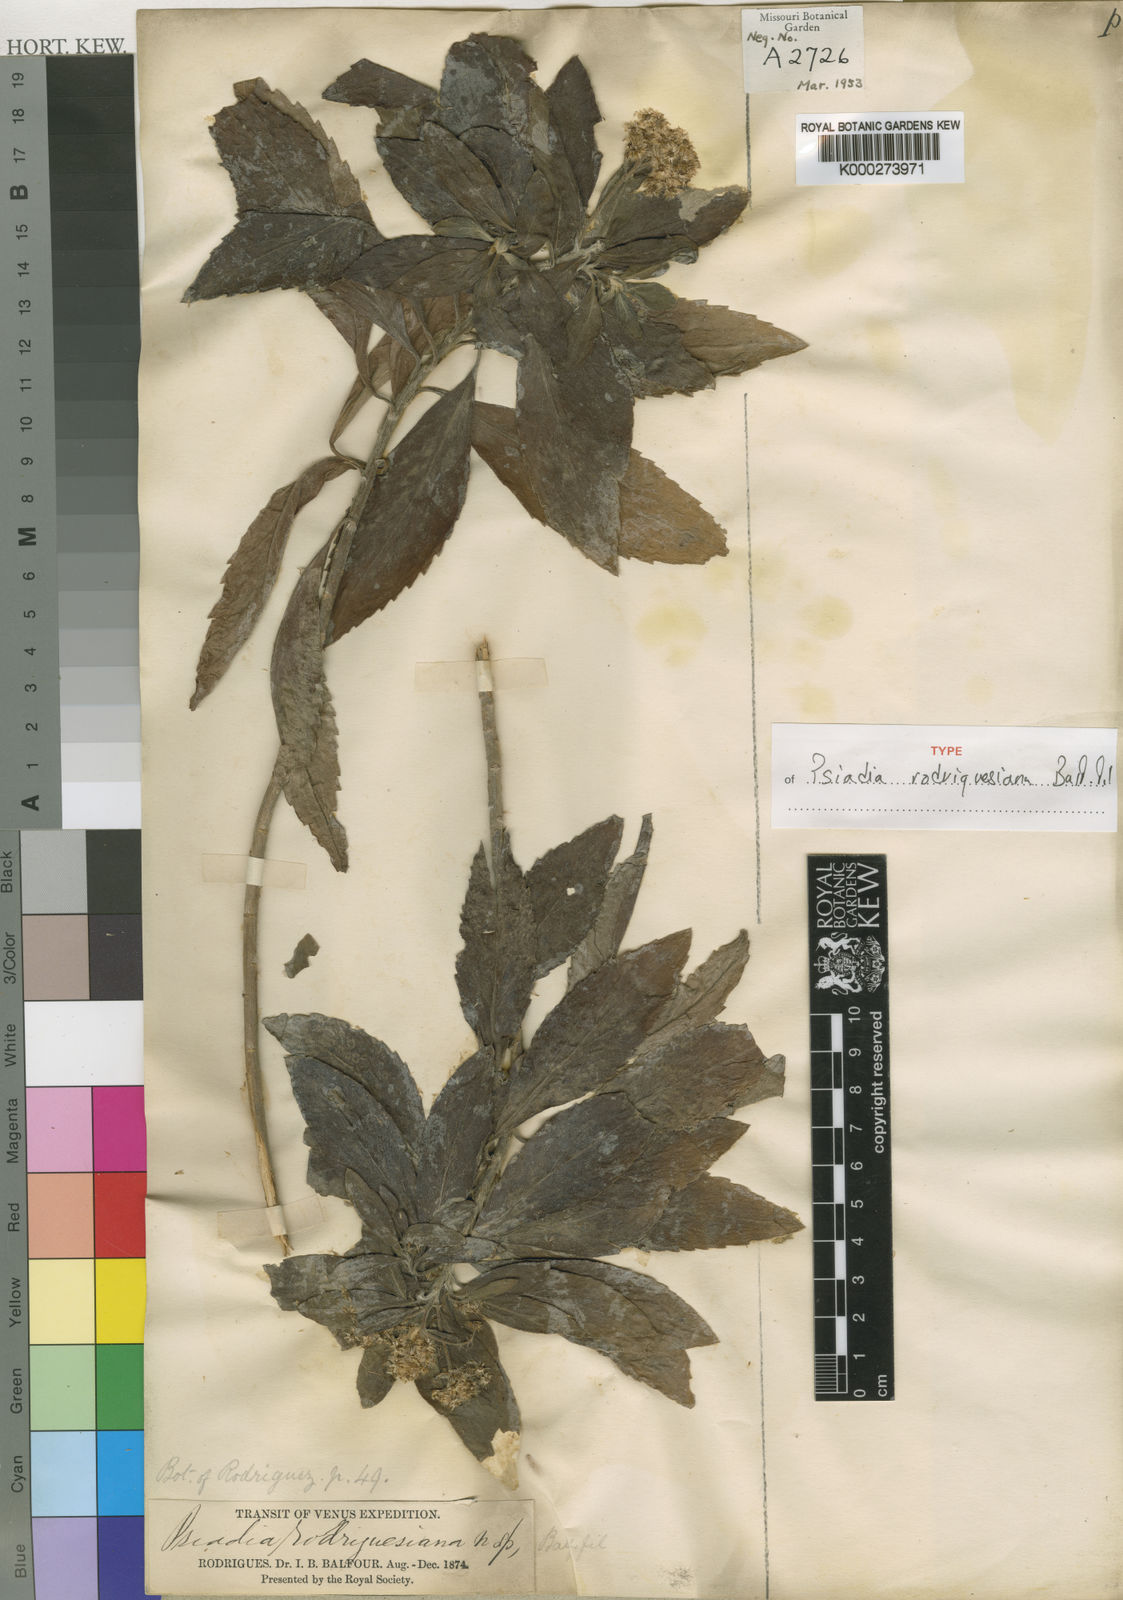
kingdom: Plantae
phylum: Tracheophyta
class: Magnoliopsida
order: Asterales
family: Asteraceae
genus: Psiadia
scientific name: Psiadia rodriguesiana
